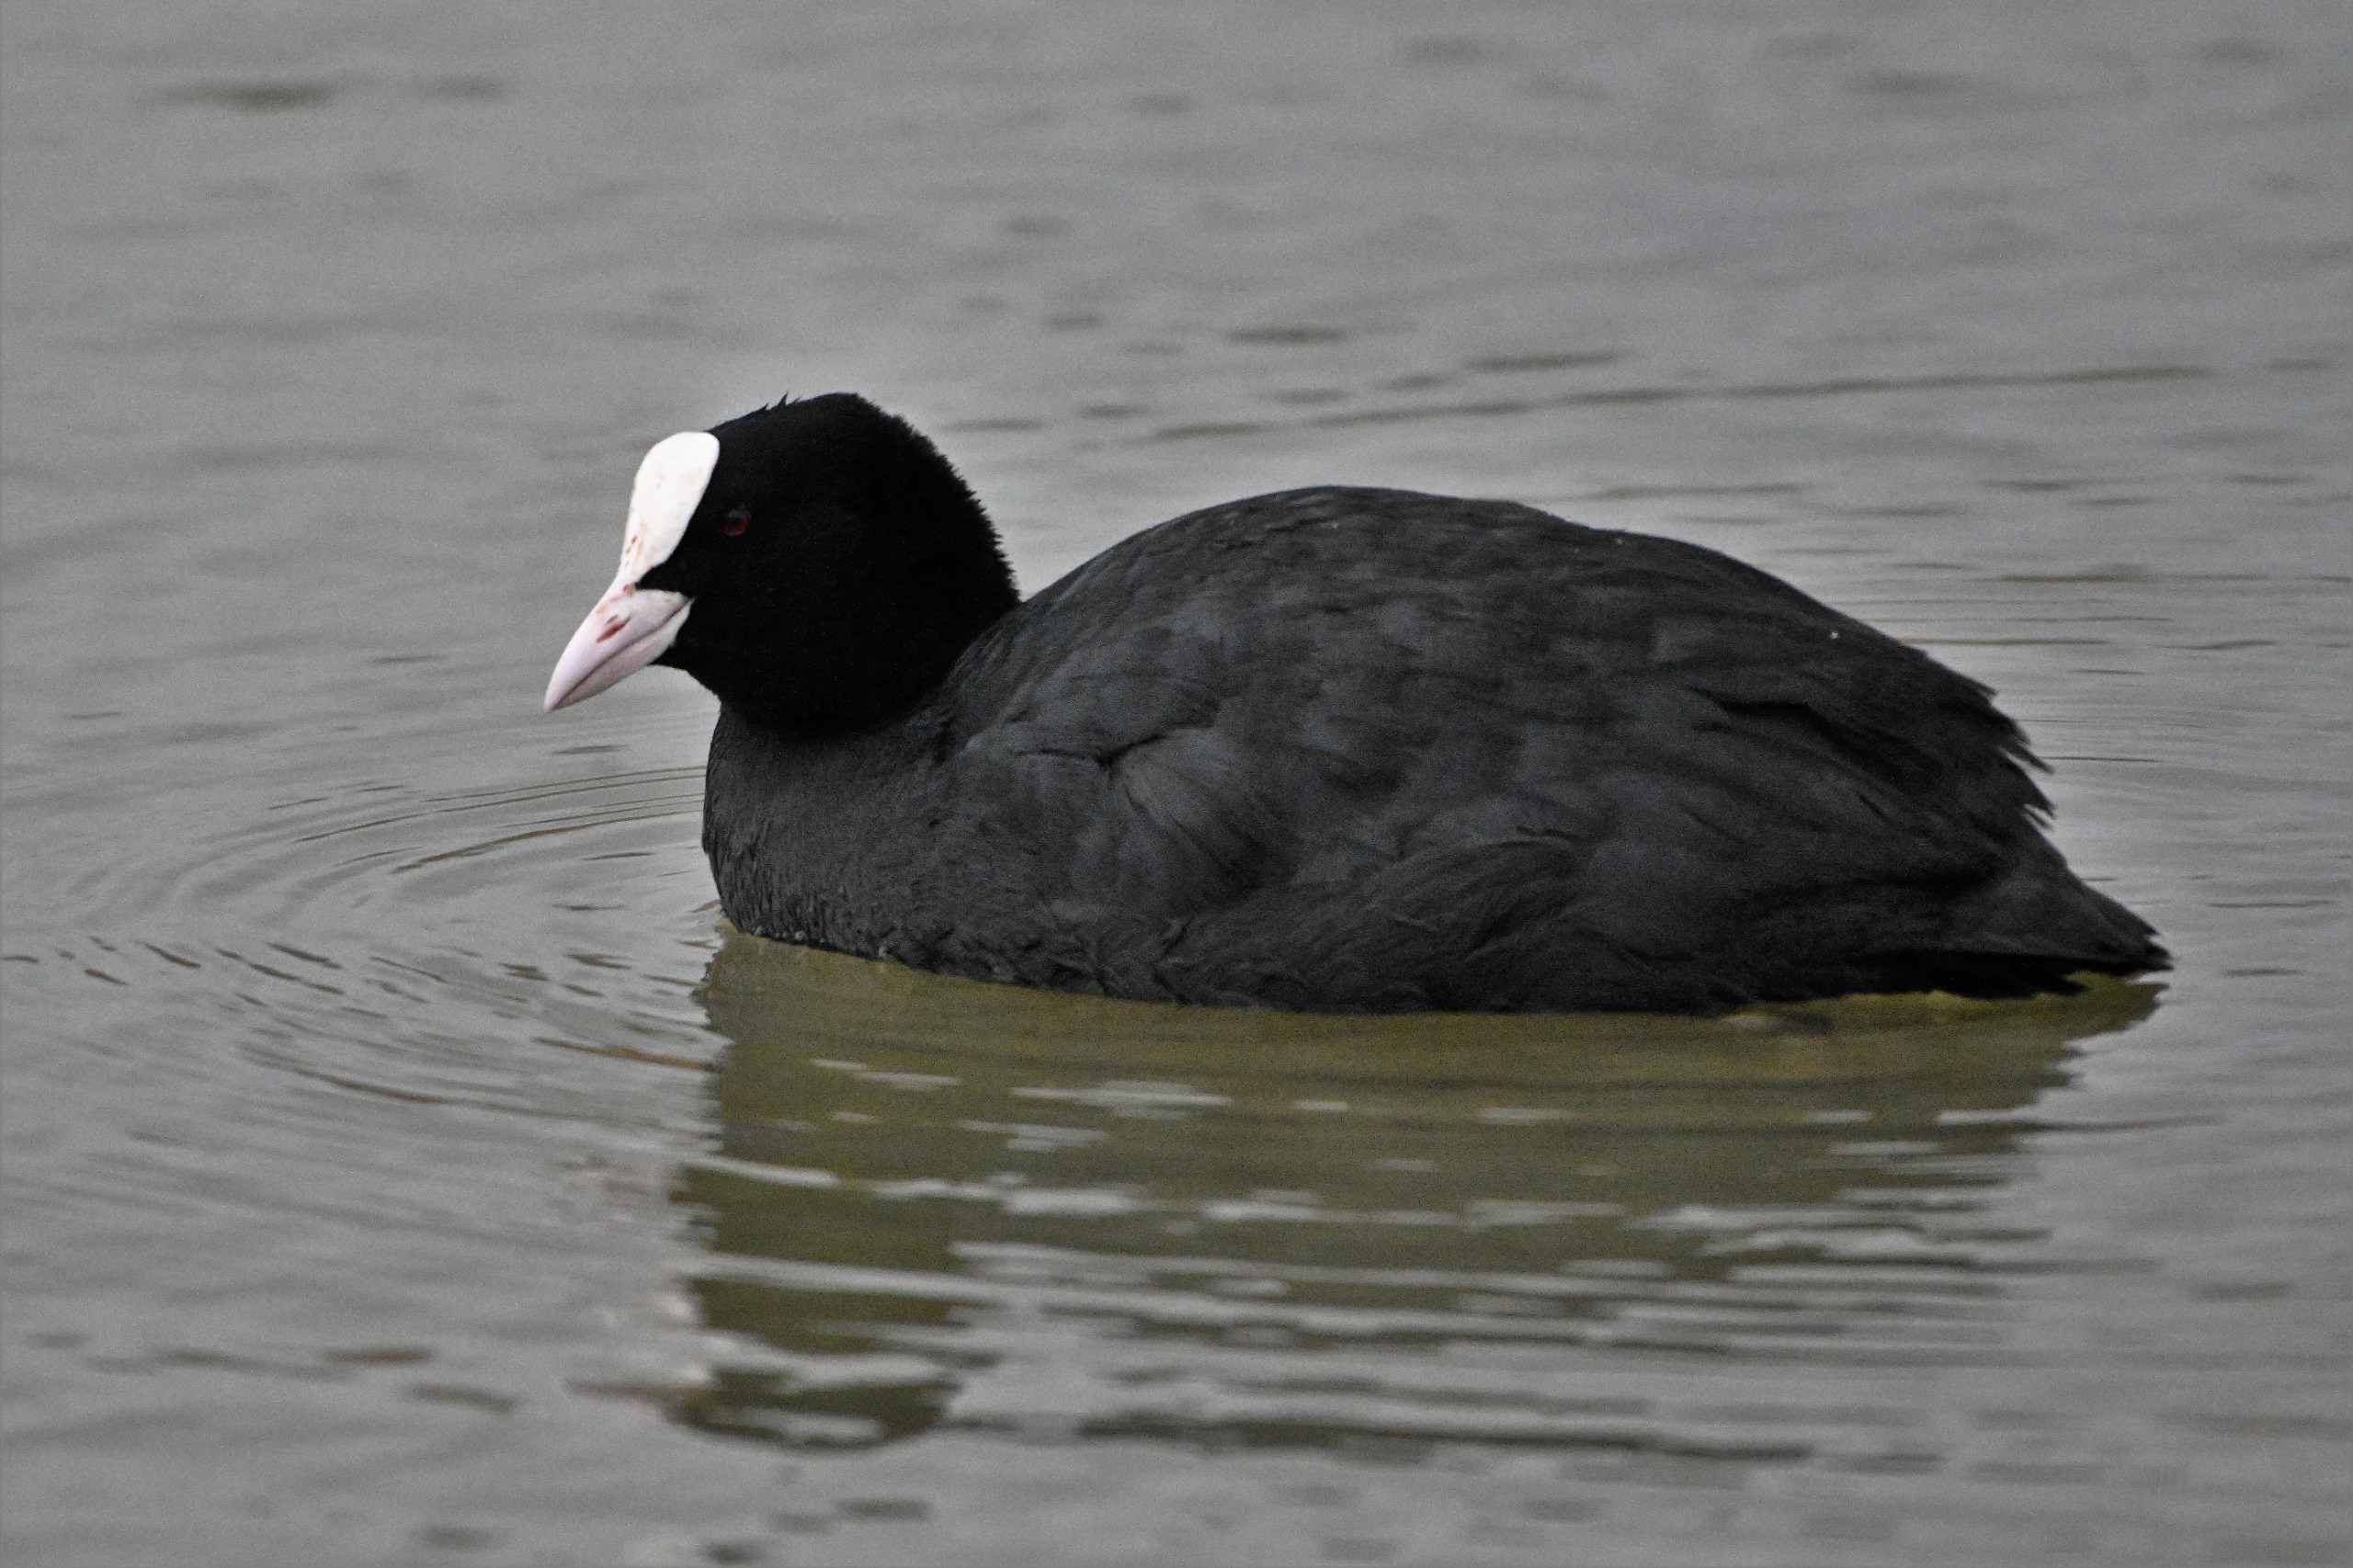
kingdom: Animalia
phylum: Chordata
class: Aves
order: Gruiformes
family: Rallidae
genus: Fulica
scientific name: Fulica atra
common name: Blishøne
